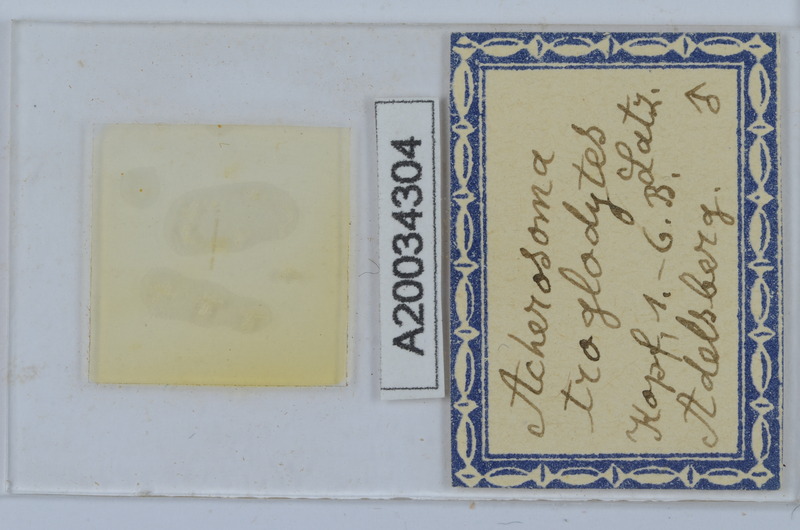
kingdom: Animalia
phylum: Arthropoda
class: Diplopoda
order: Chordeumatida
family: Anthogonidae
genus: Haasia
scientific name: Haasia troglodytes
